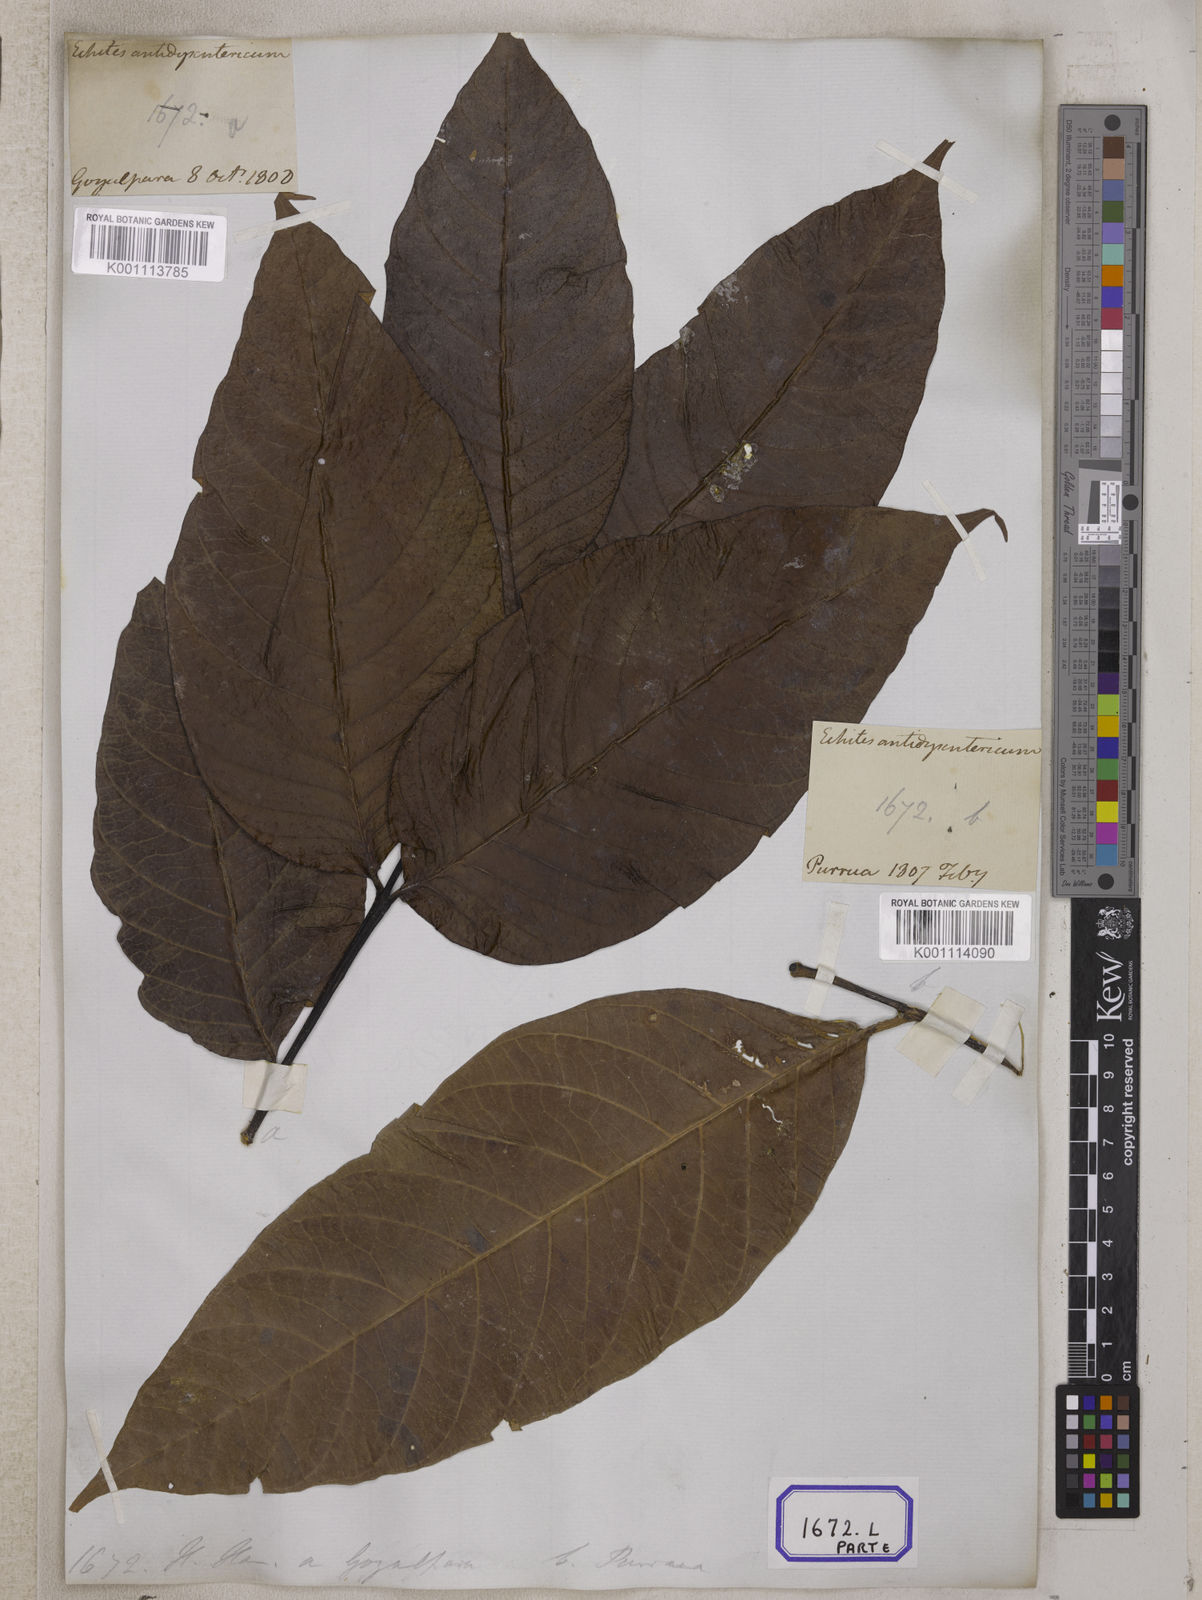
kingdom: Plantae
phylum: Tracheophyta
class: Magnoliopsida
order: Gentianales
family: Apocynaceae
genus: Holarrhena
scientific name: Holarrhena pubescens
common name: Bitter oleander
